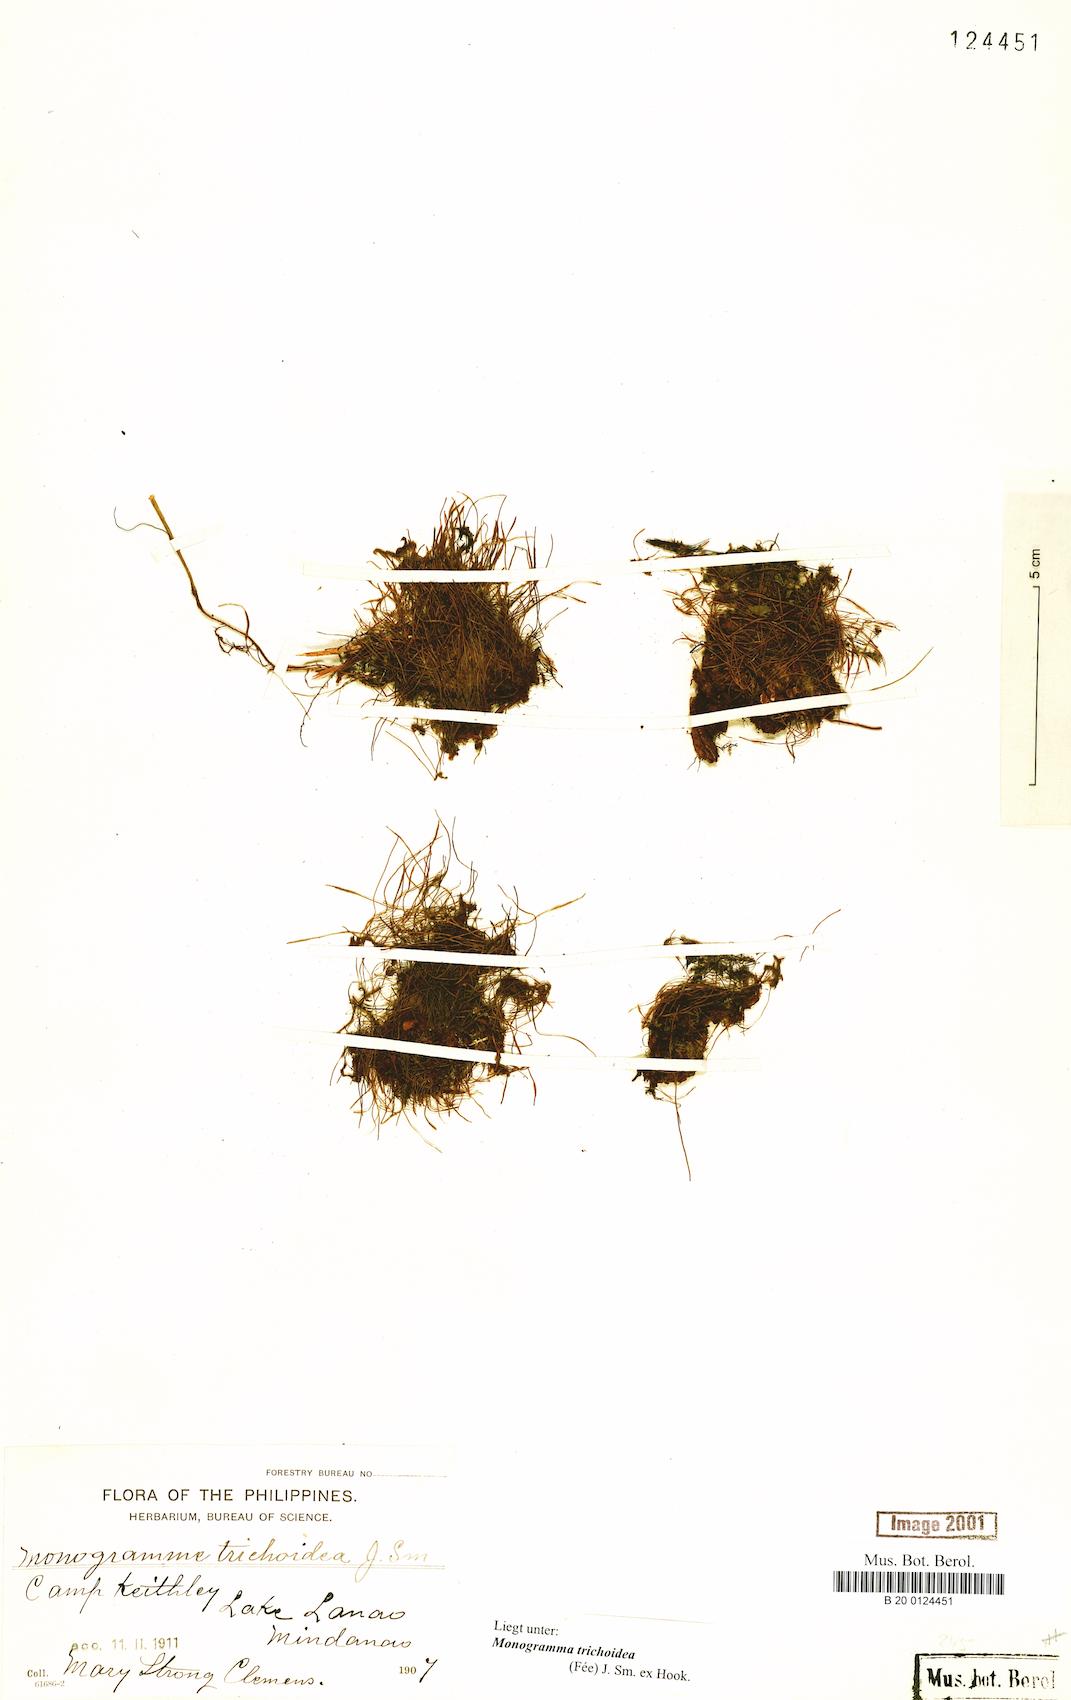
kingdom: Plantae
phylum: Tracheophyta
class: Polypodiopsida
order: Polypodiales
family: Pteridaceae
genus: Vaginularia
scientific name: Vaginularia trichoidea
